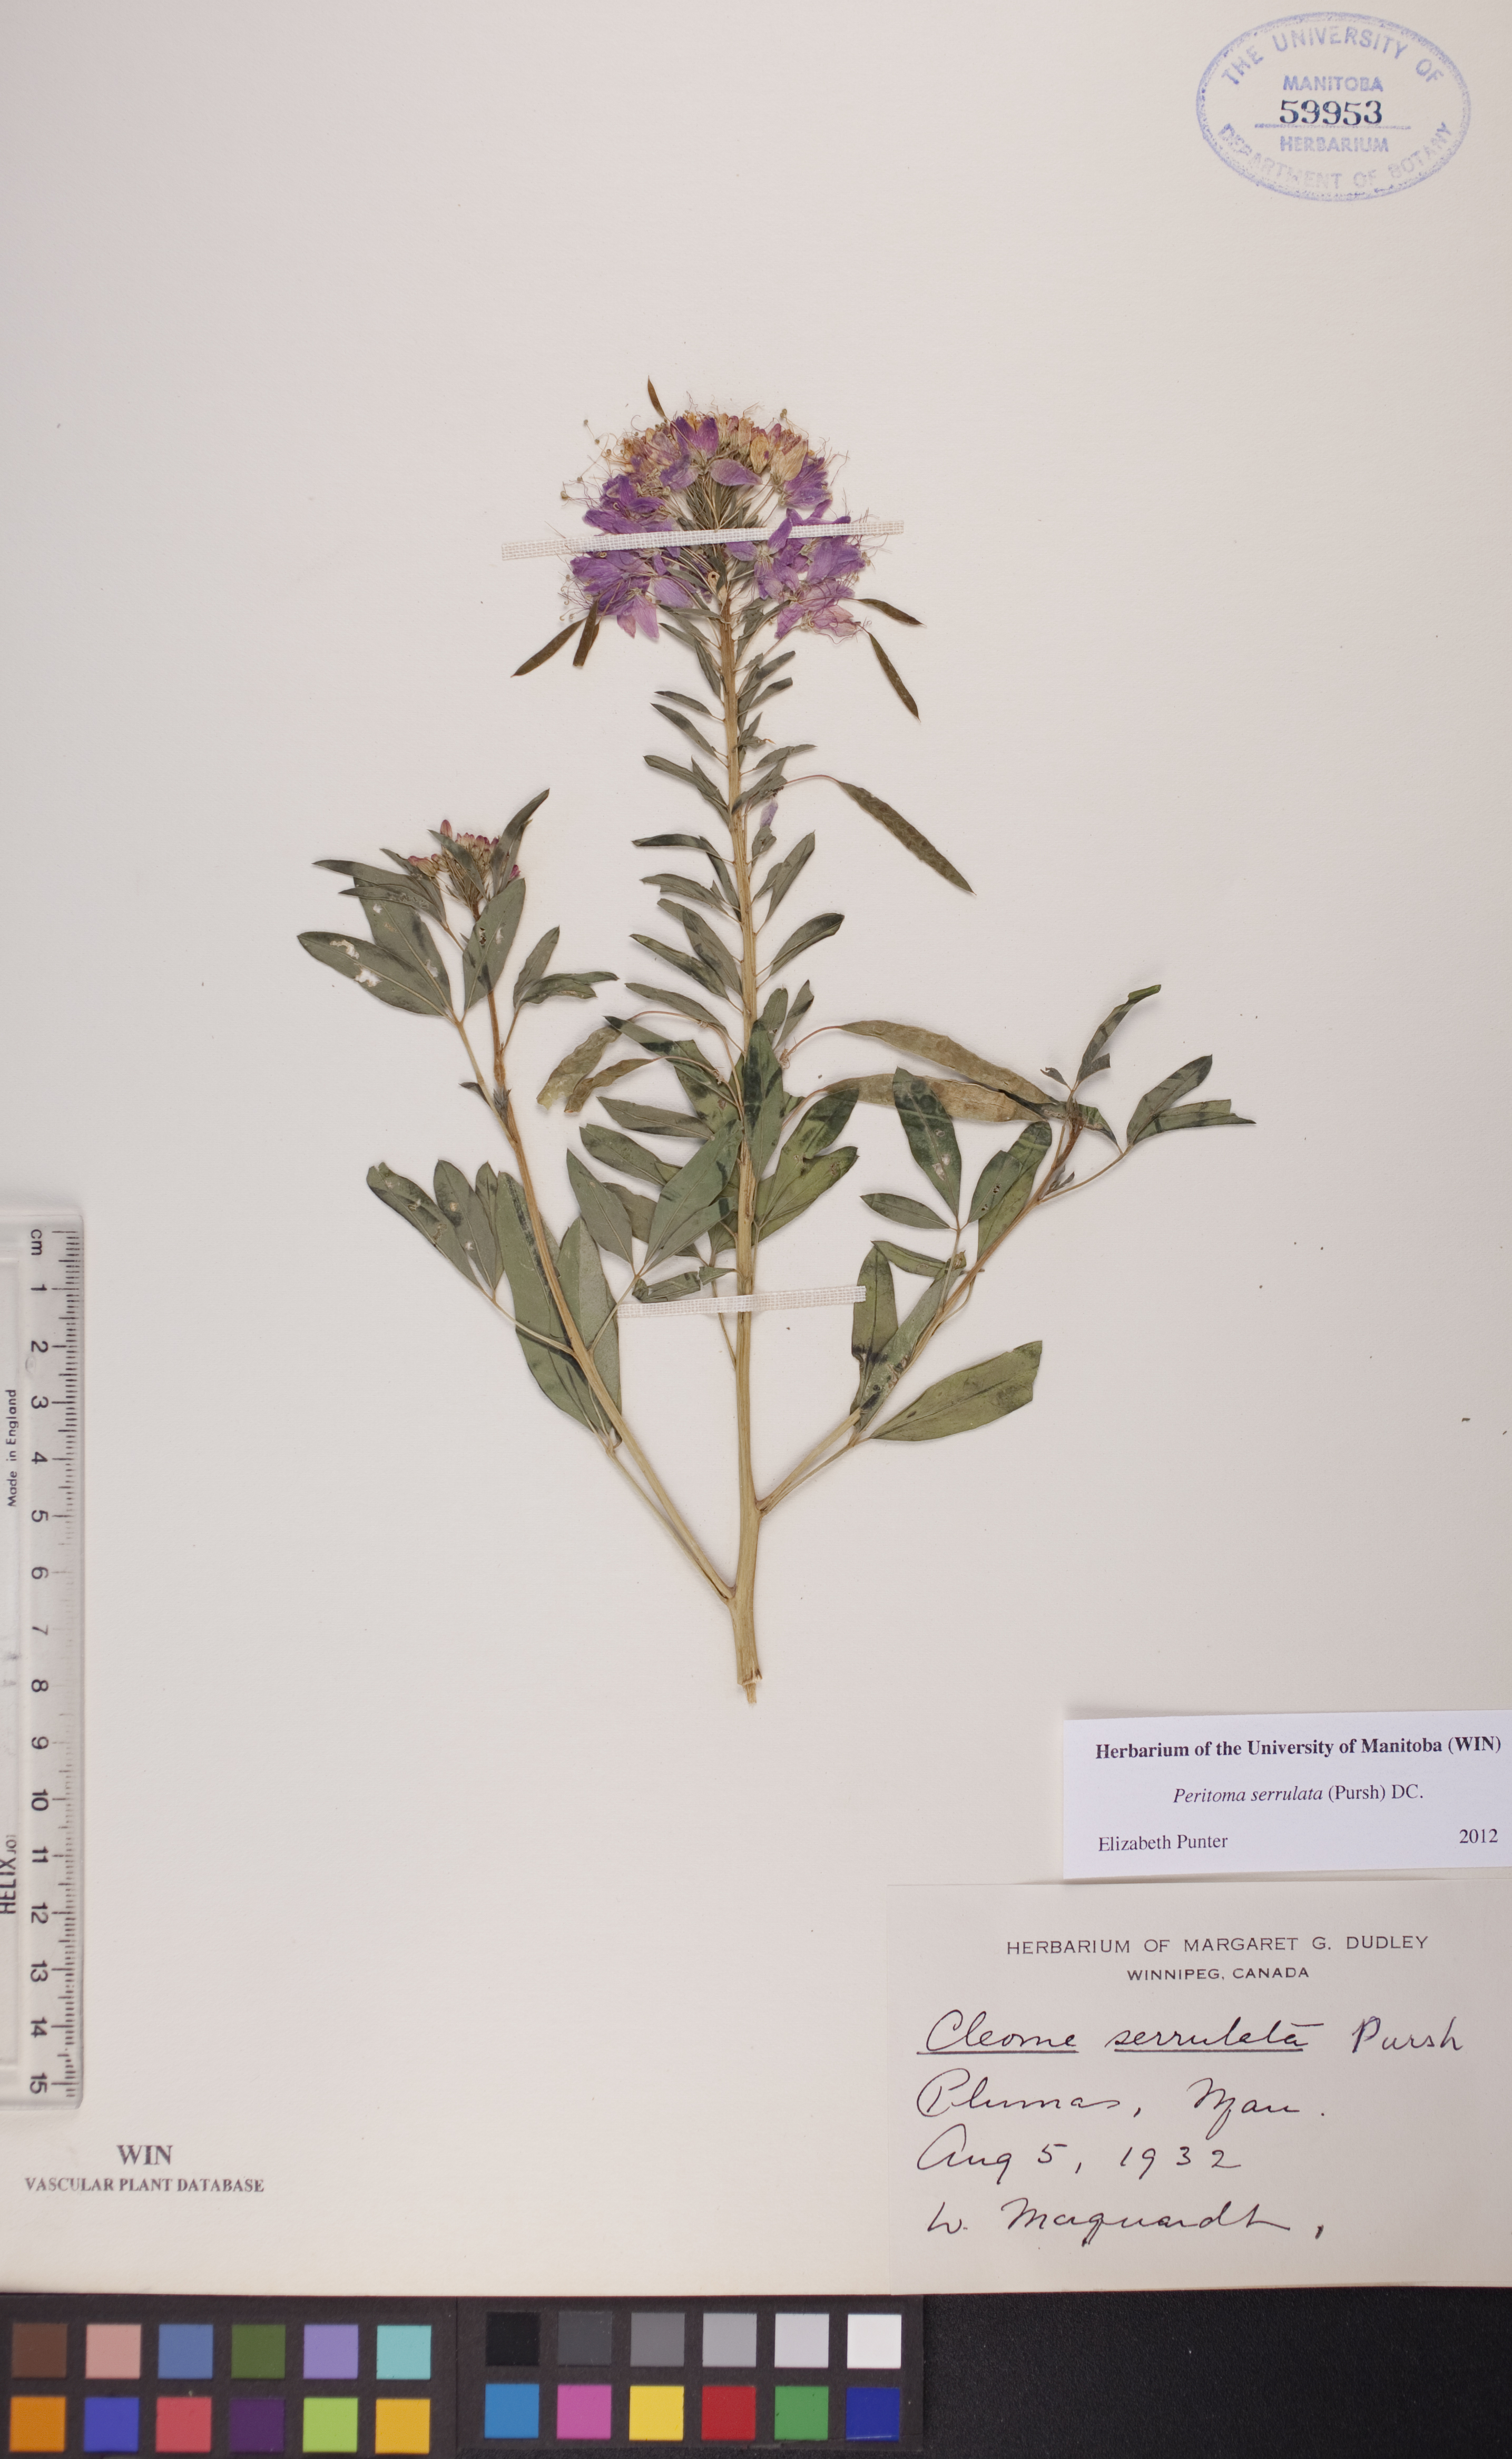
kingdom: Plantae
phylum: Tracheophyta
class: Magnoliopsida
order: Brassicales
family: Cleomaceae
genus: Cleomella
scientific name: Cleomella serrulata
